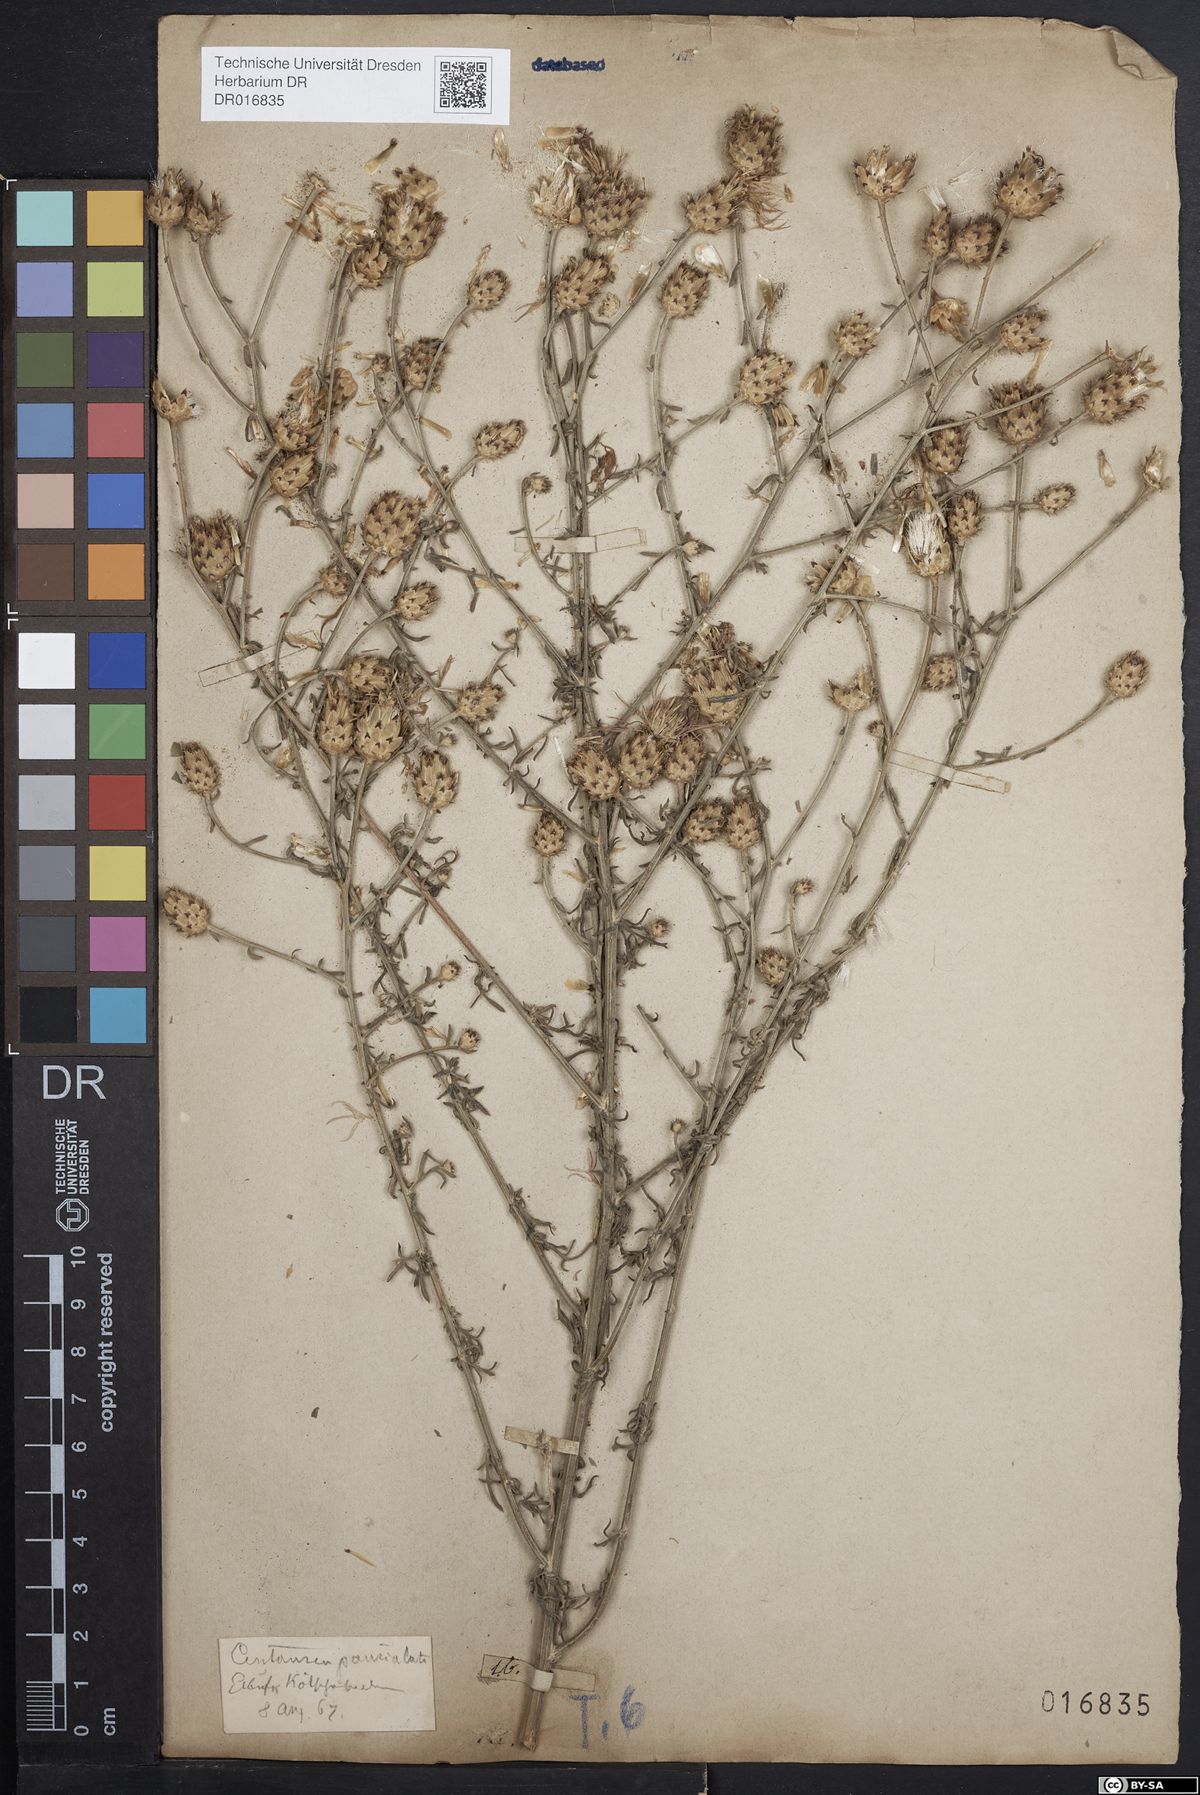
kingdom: Plantae
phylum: Tracheophyta
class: Magnoliopsida
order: Asterales
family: Asteraceae
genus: Centaurea
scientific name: Centaurea stoebe
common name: Spotted knapweed
